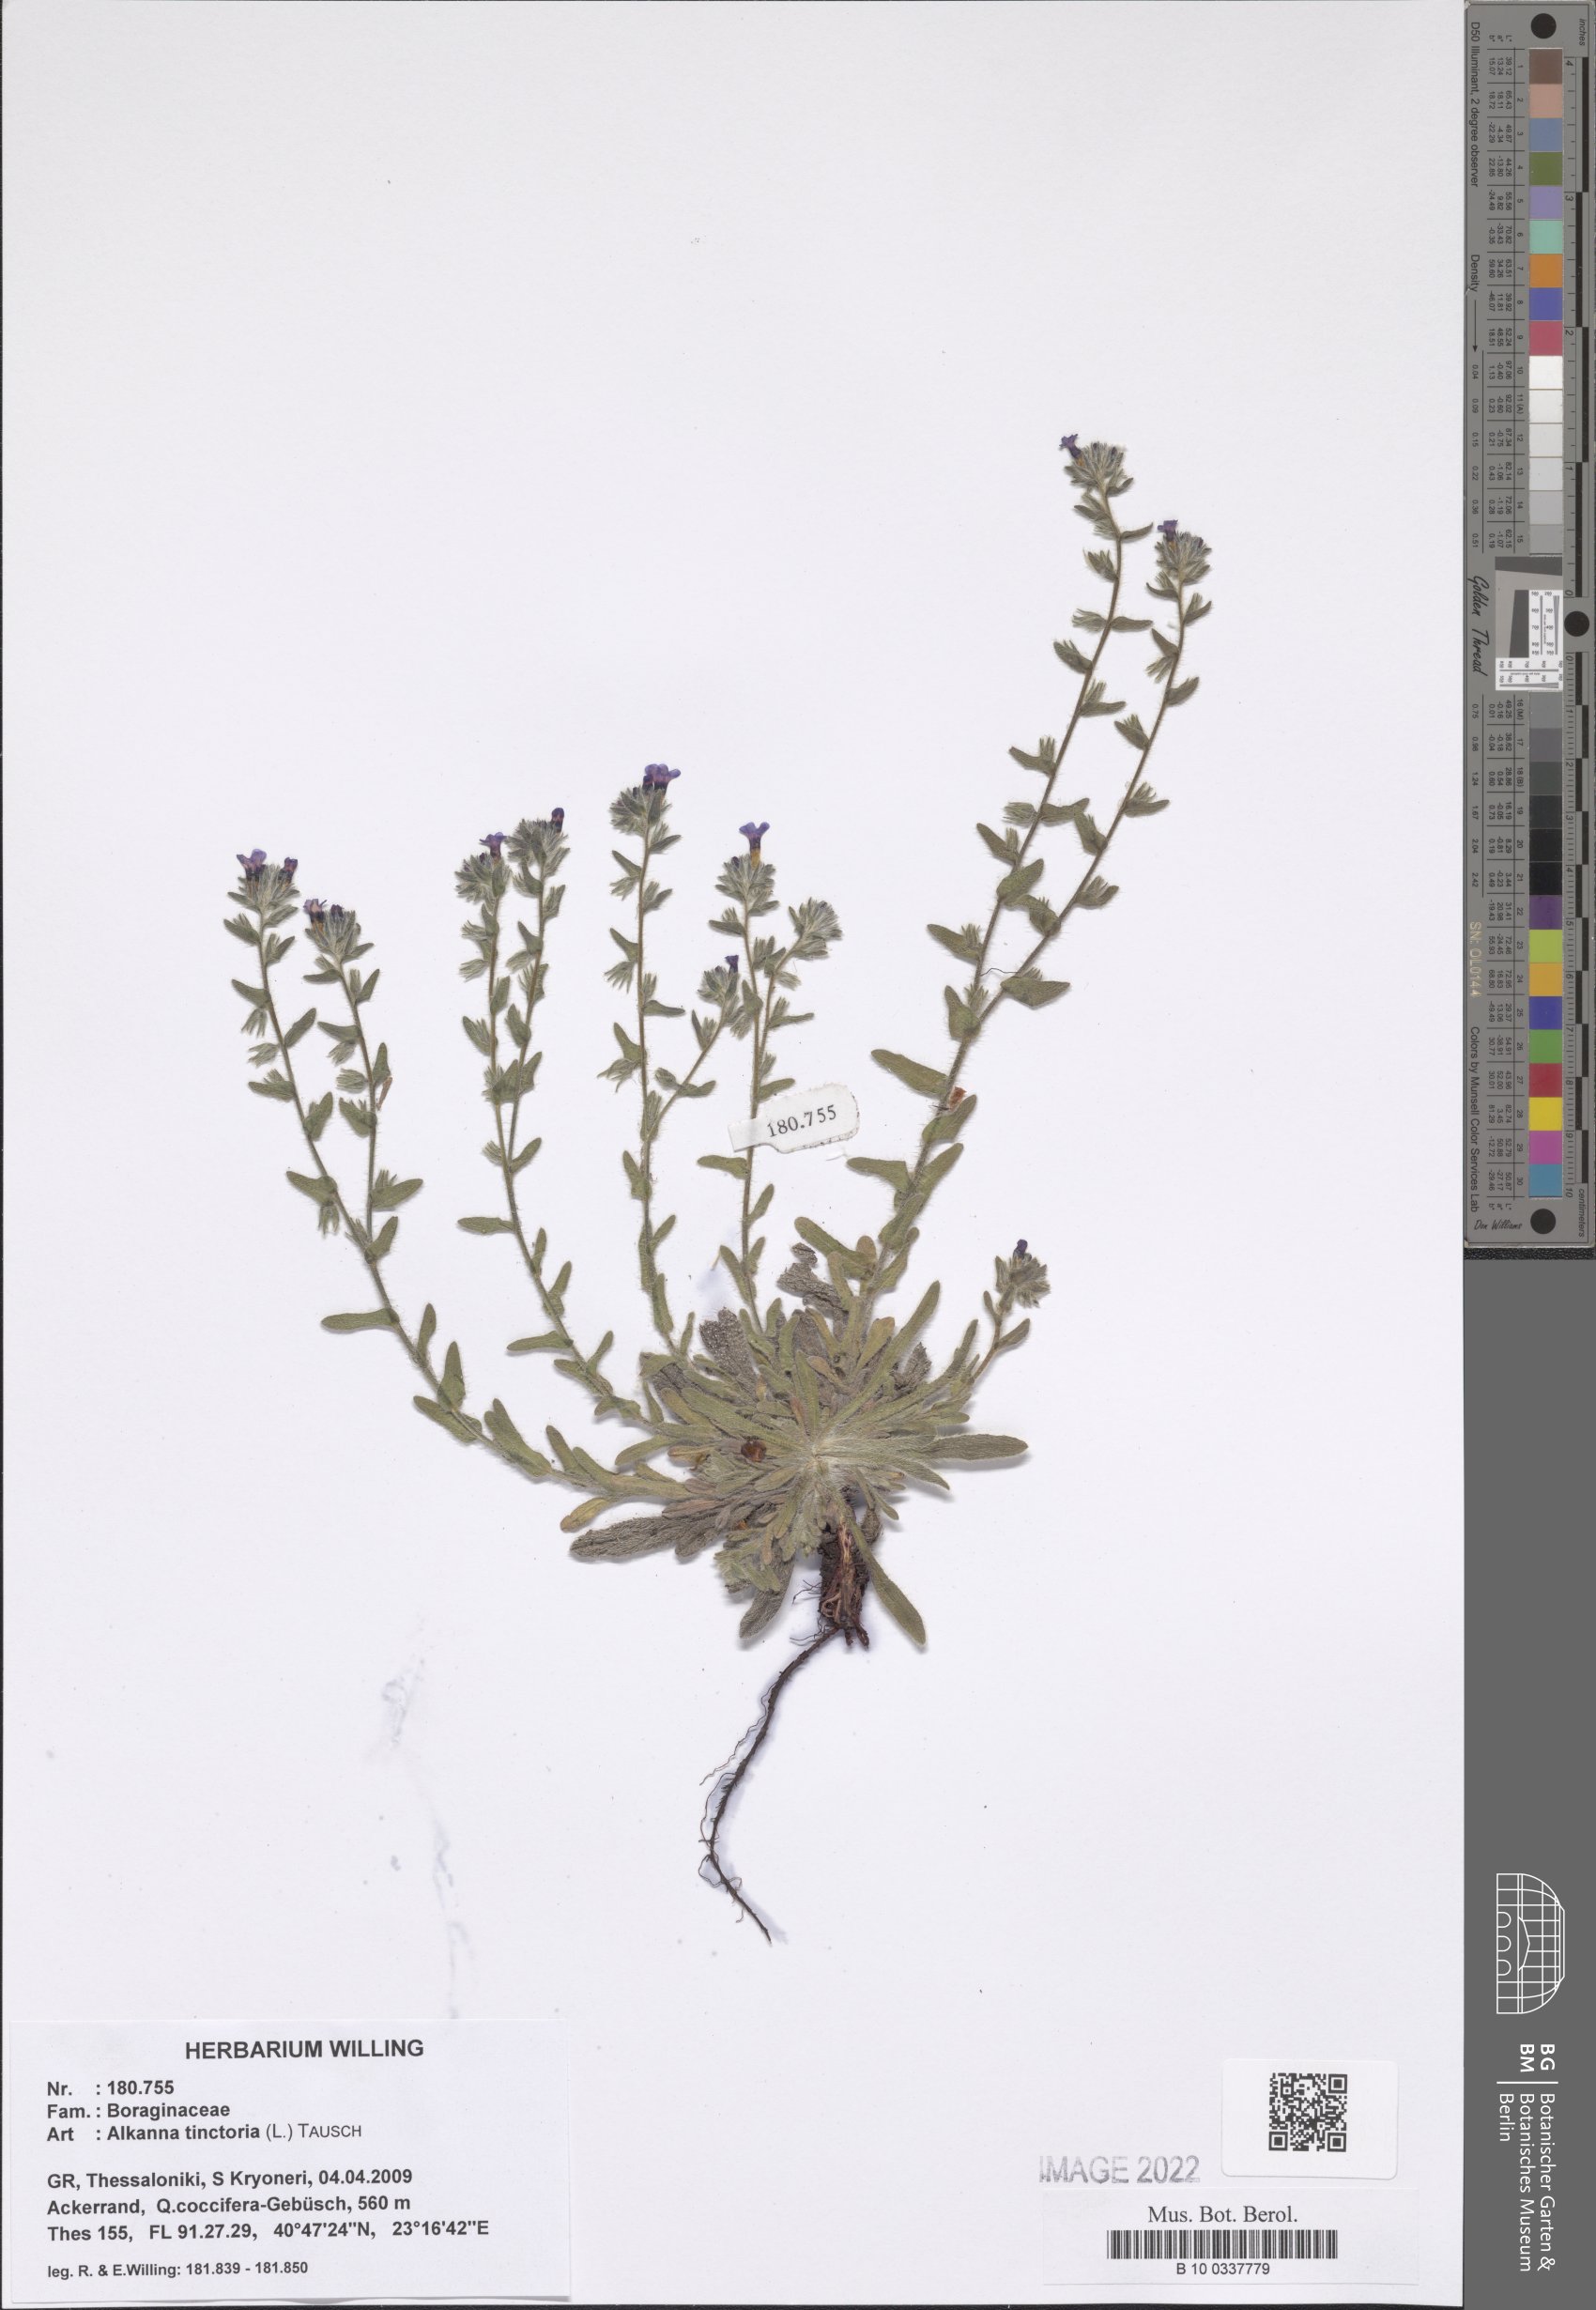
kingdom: Plantae
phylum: Tracheophyta
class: Magnoliopsida
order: Boraginales
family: Boraginaceae
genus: Alkanna
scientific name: Alkanna tinctoria
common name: Dyer's-alkanet
